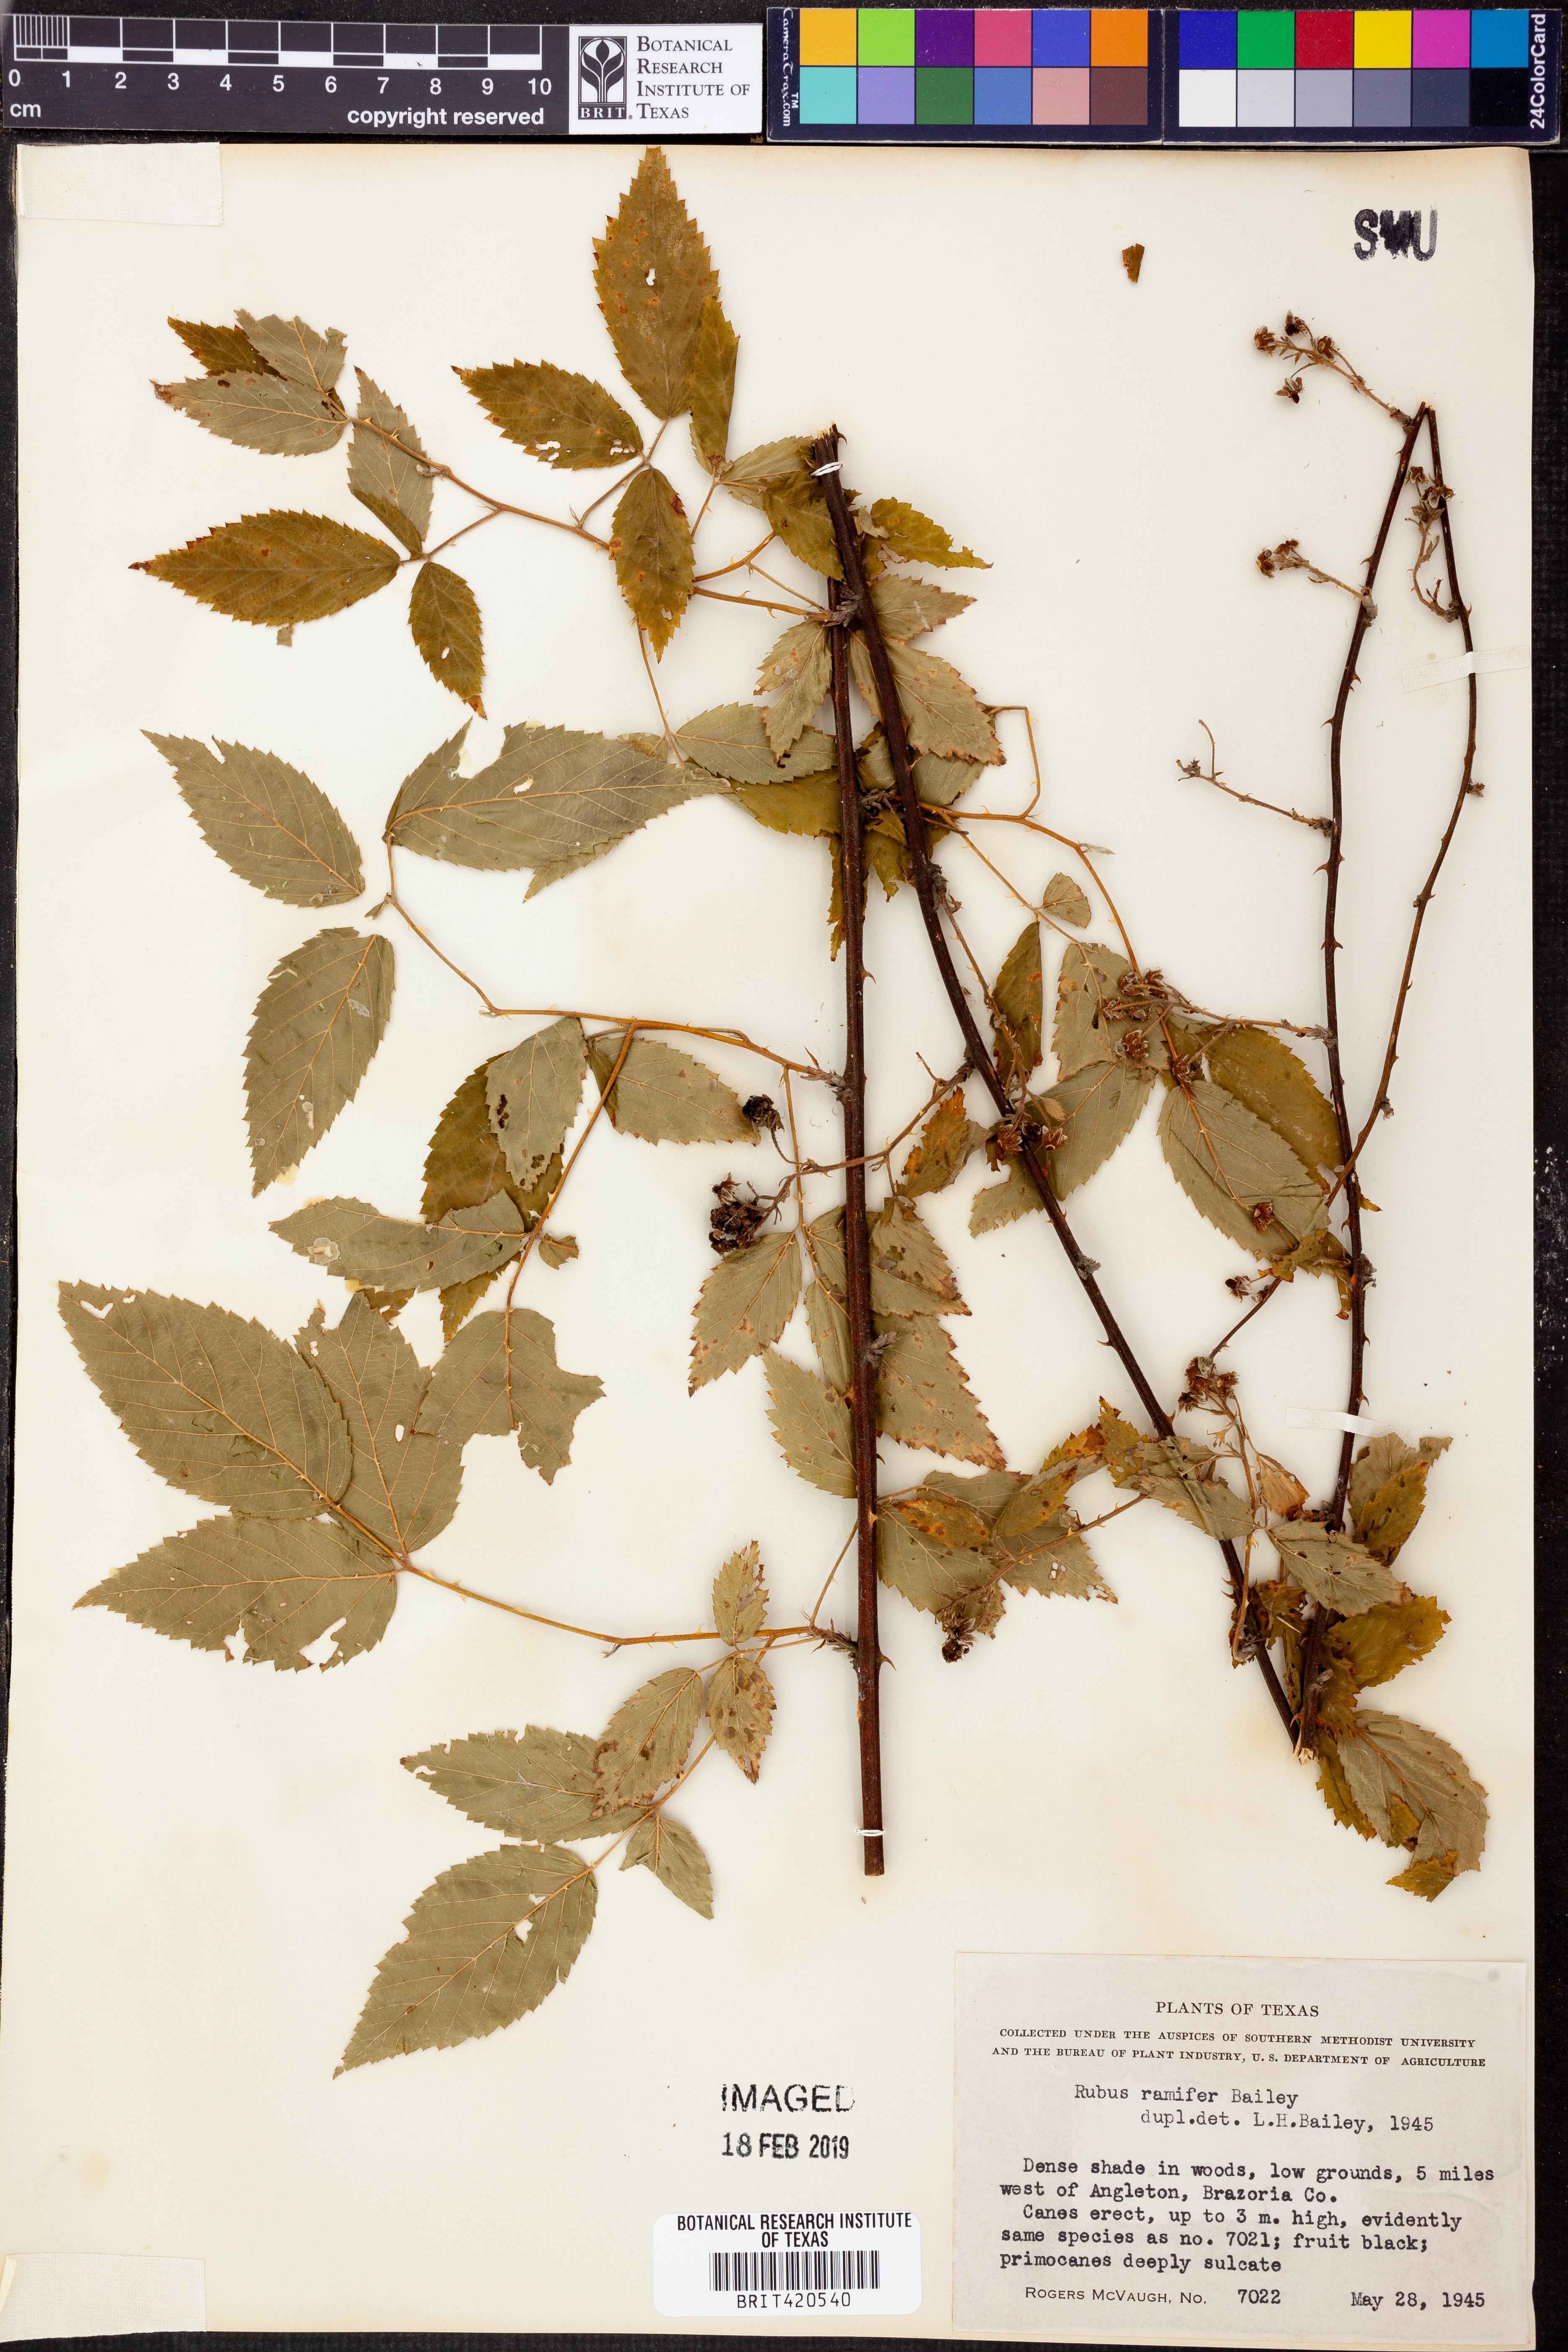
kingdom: Plantae
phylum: Tracheophyta
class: Magnoliopsida
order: Rosales
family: Rosaceae
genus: Rubus
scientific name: Rubus suus
